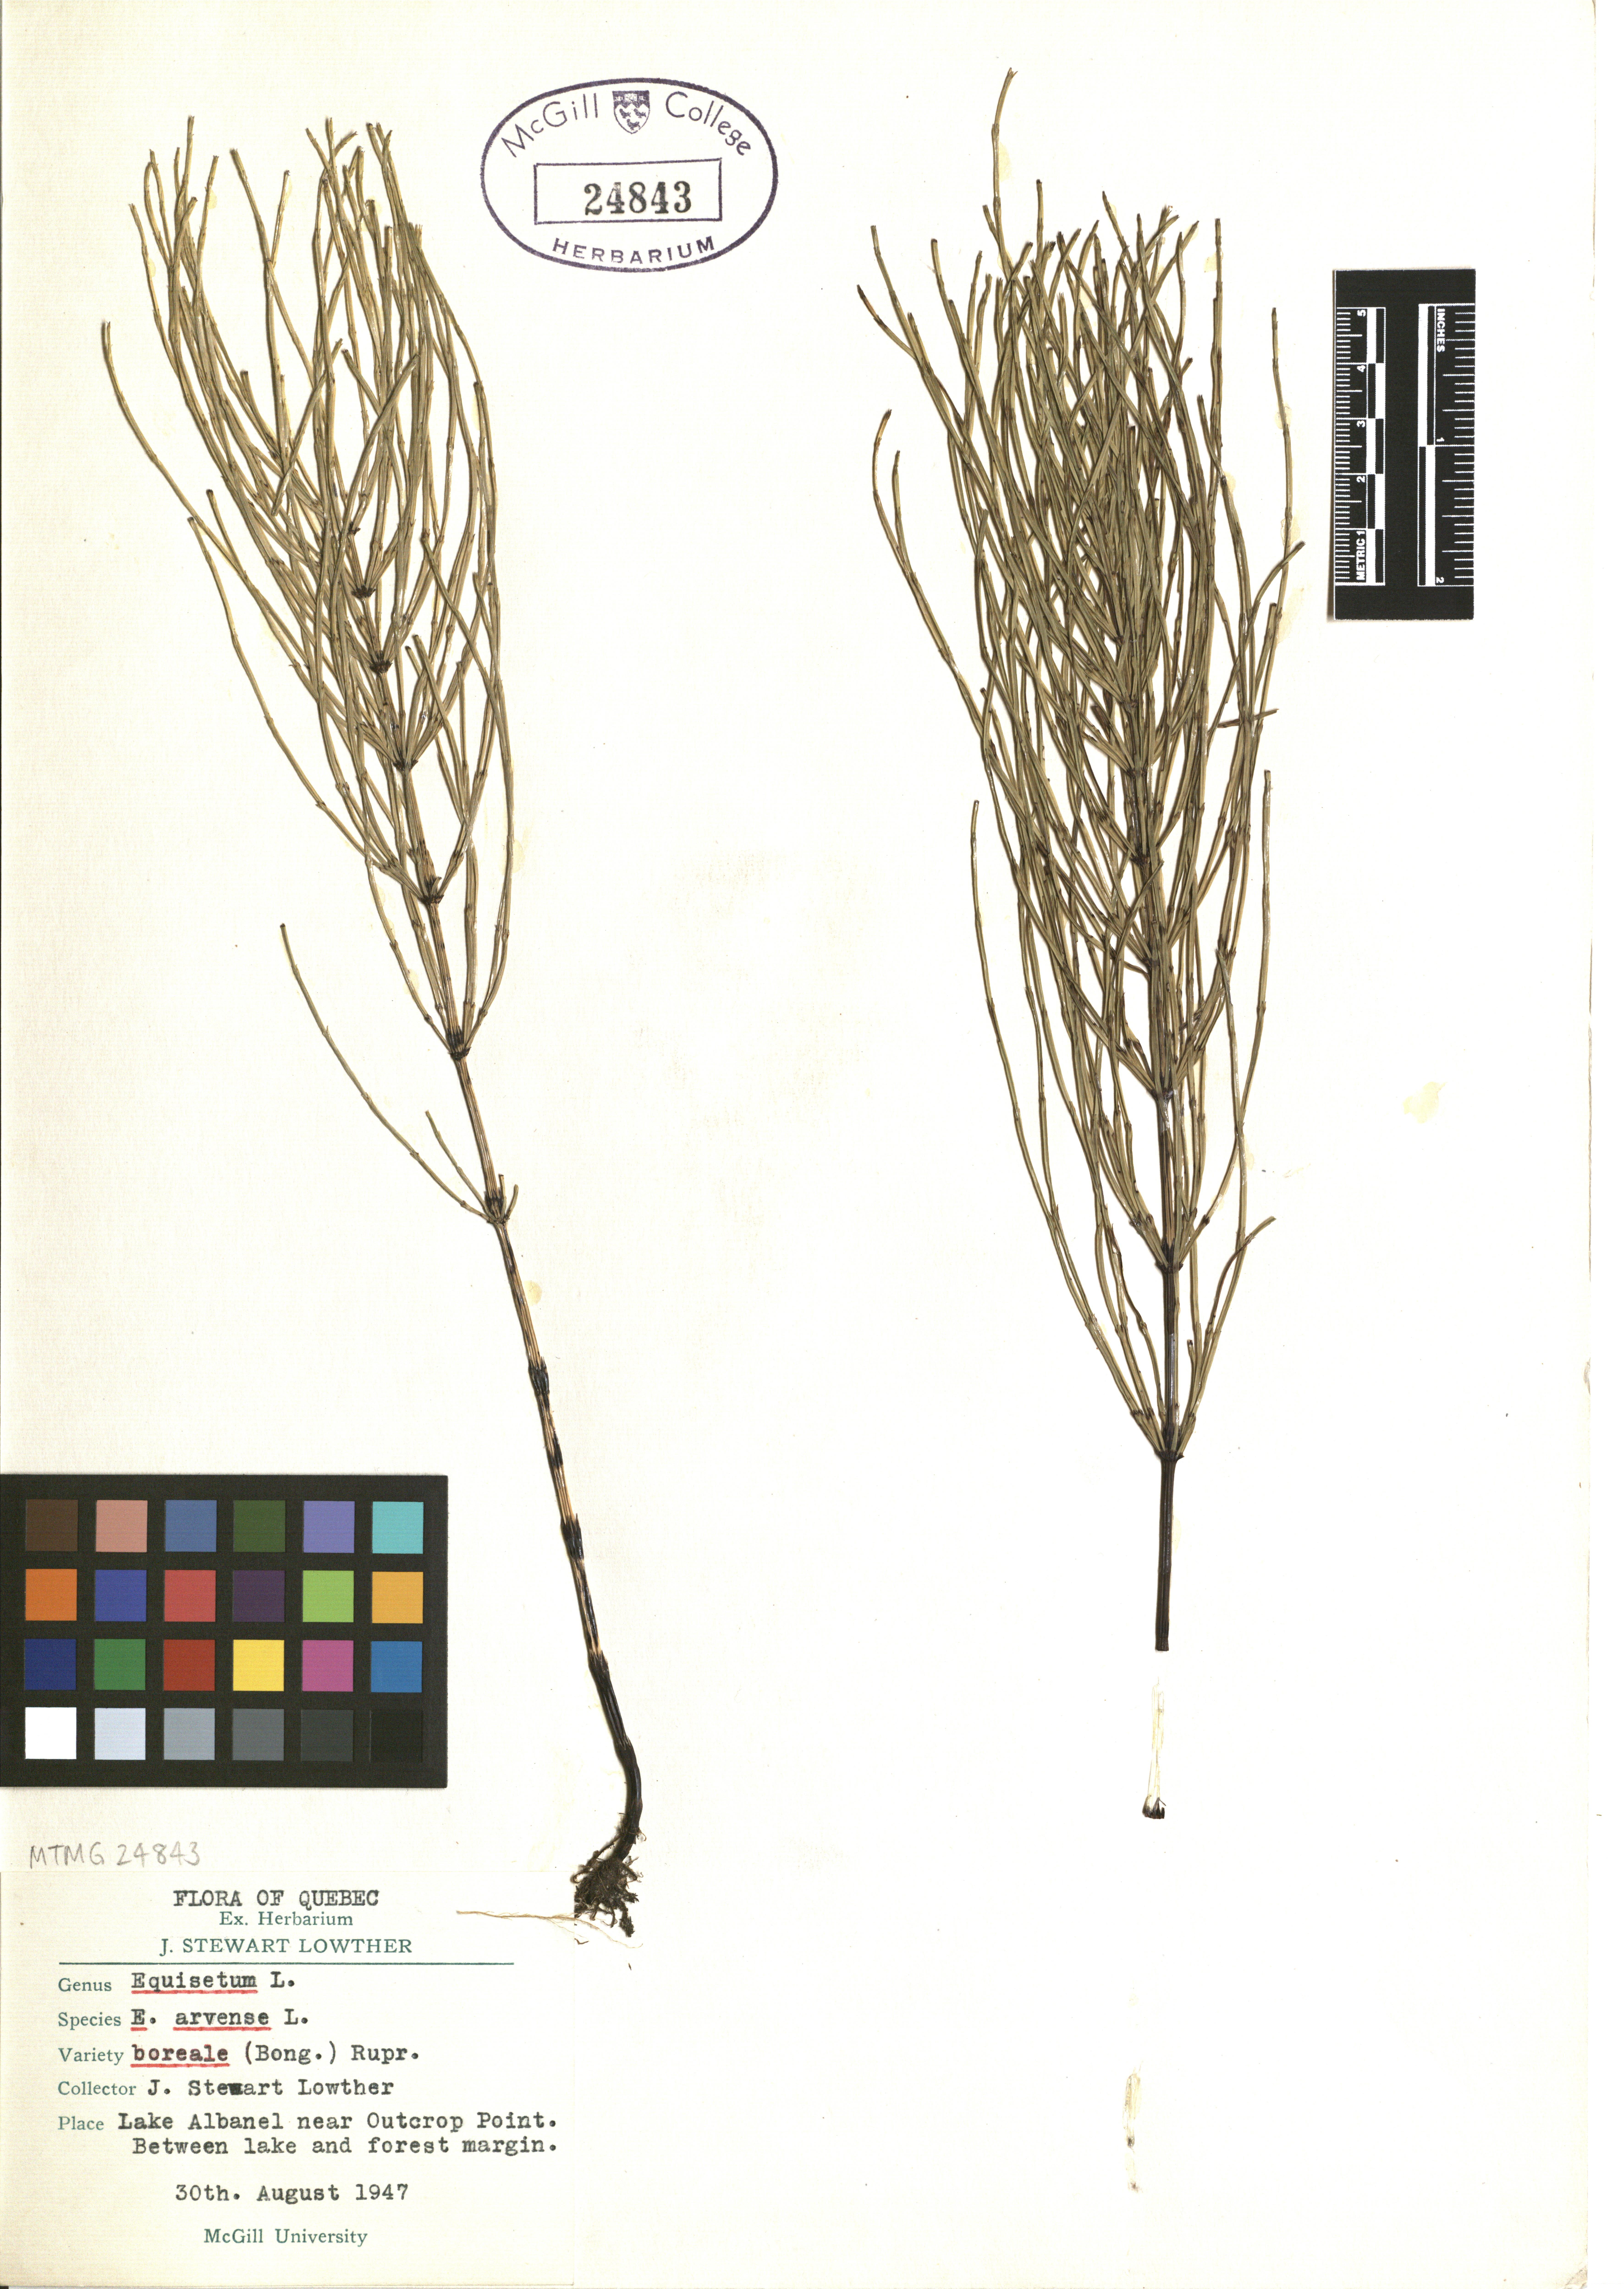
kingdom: Plantae
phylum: Tracheophyta
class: Polypodiopsida
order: Equisetales
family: Equisetaceae
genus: Equisetum
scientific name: Equisetum arvense
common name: Field horsetail
